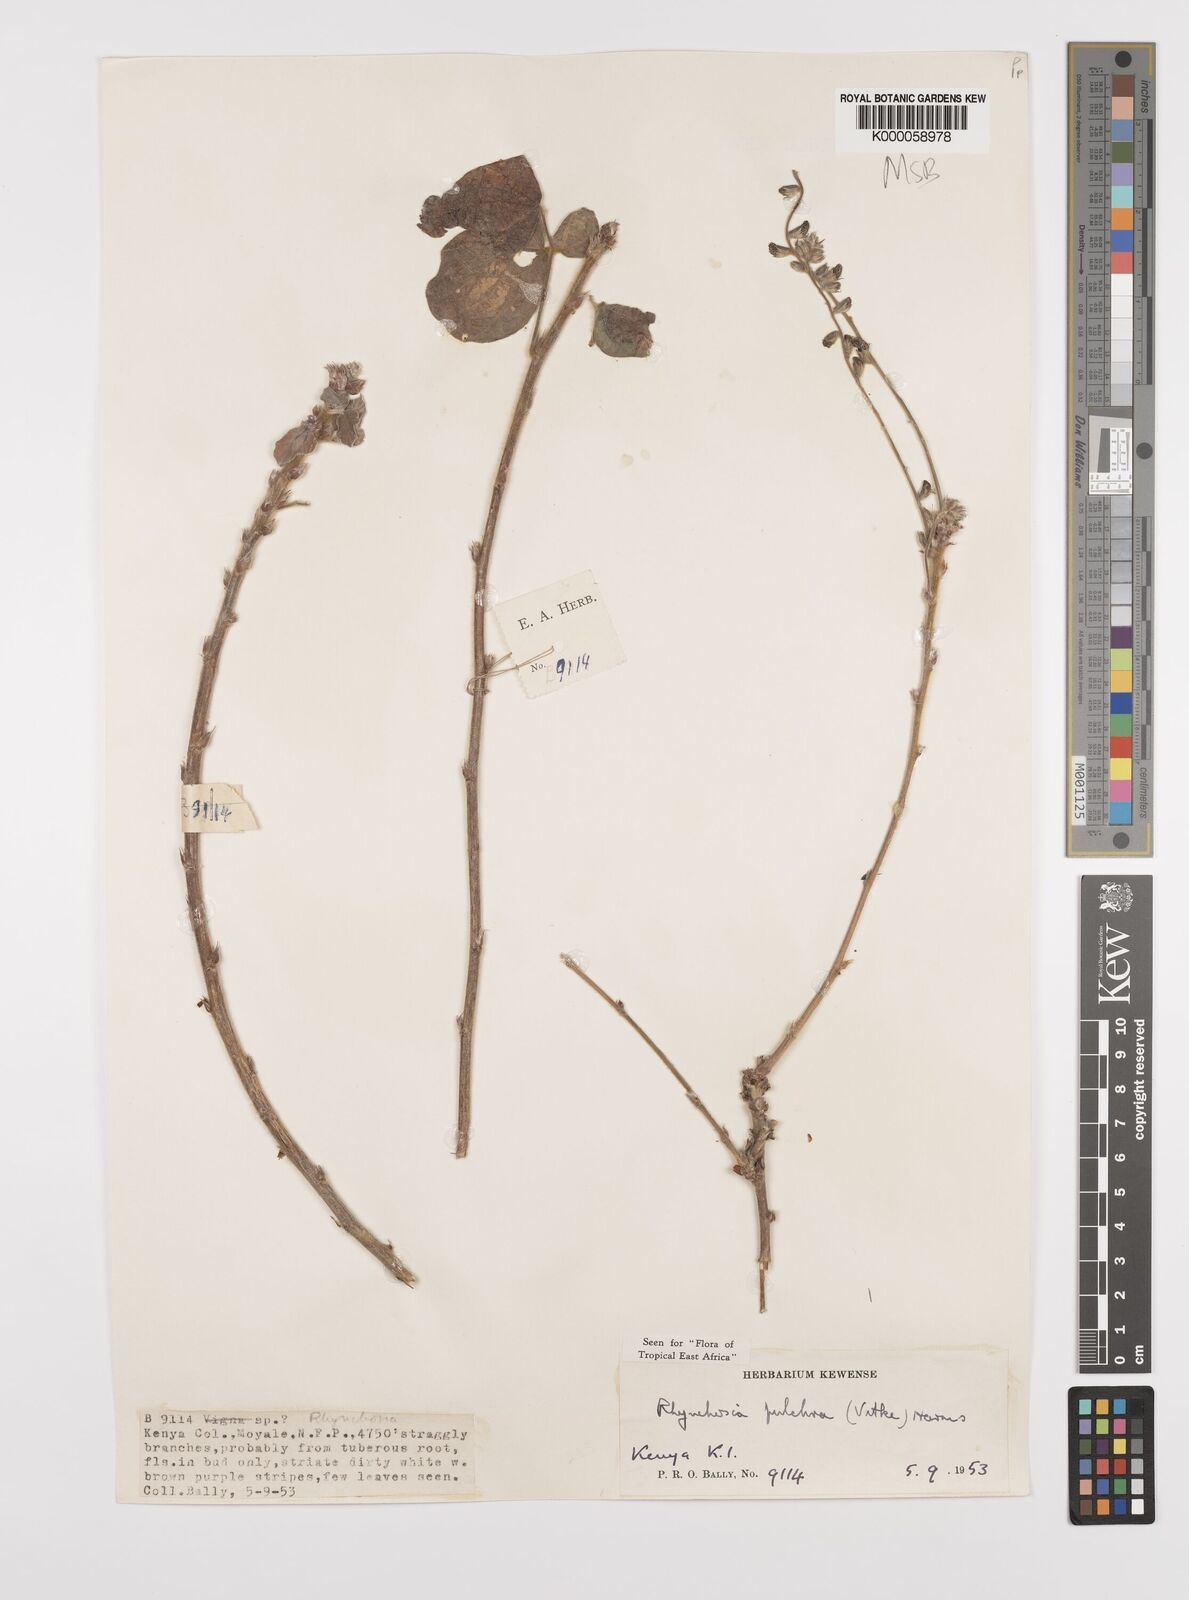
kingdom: Plantae
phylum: Tracheophyta
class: Magnoliopsida
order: Fabales
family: Fabaceae
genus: Rhynchosia
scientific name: Rhynchosia pulchra
